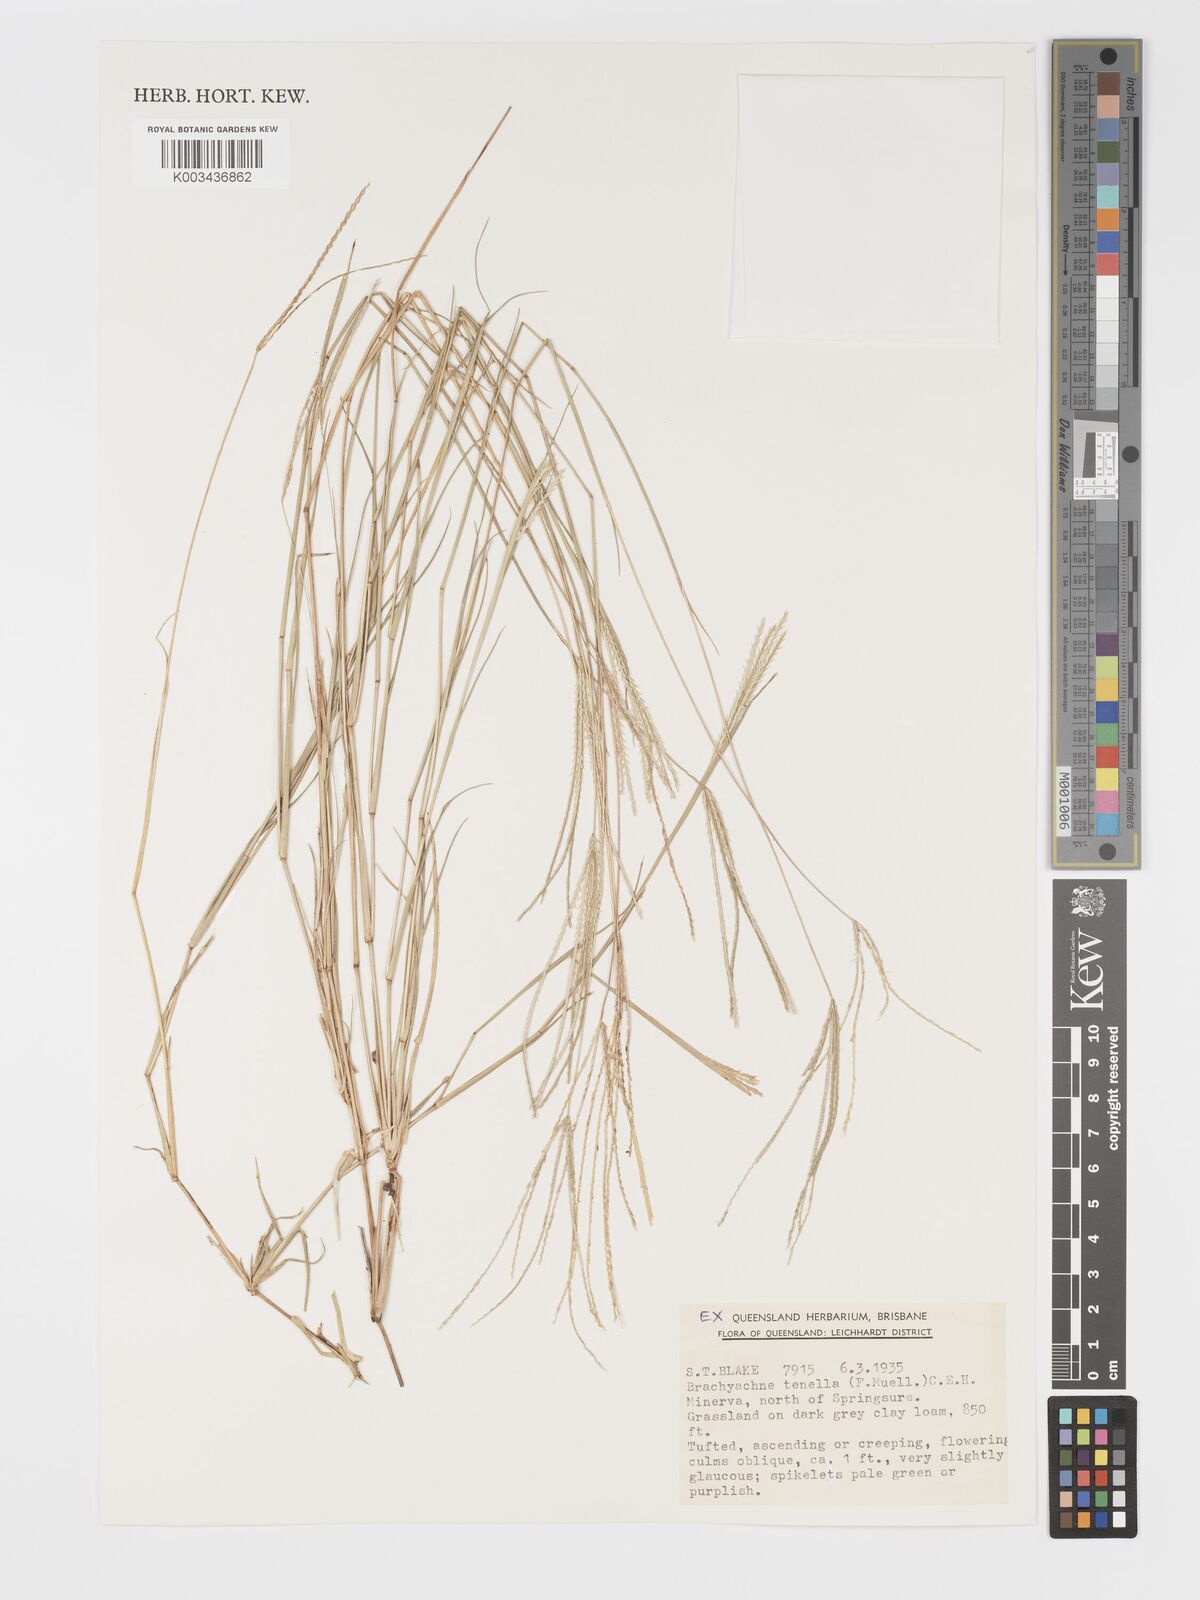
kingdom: Plantae
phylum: Tracheophyta
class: Liliopsida
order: Poales
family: Poaceae
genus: Cynodon
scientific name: Cynodon tenellus
